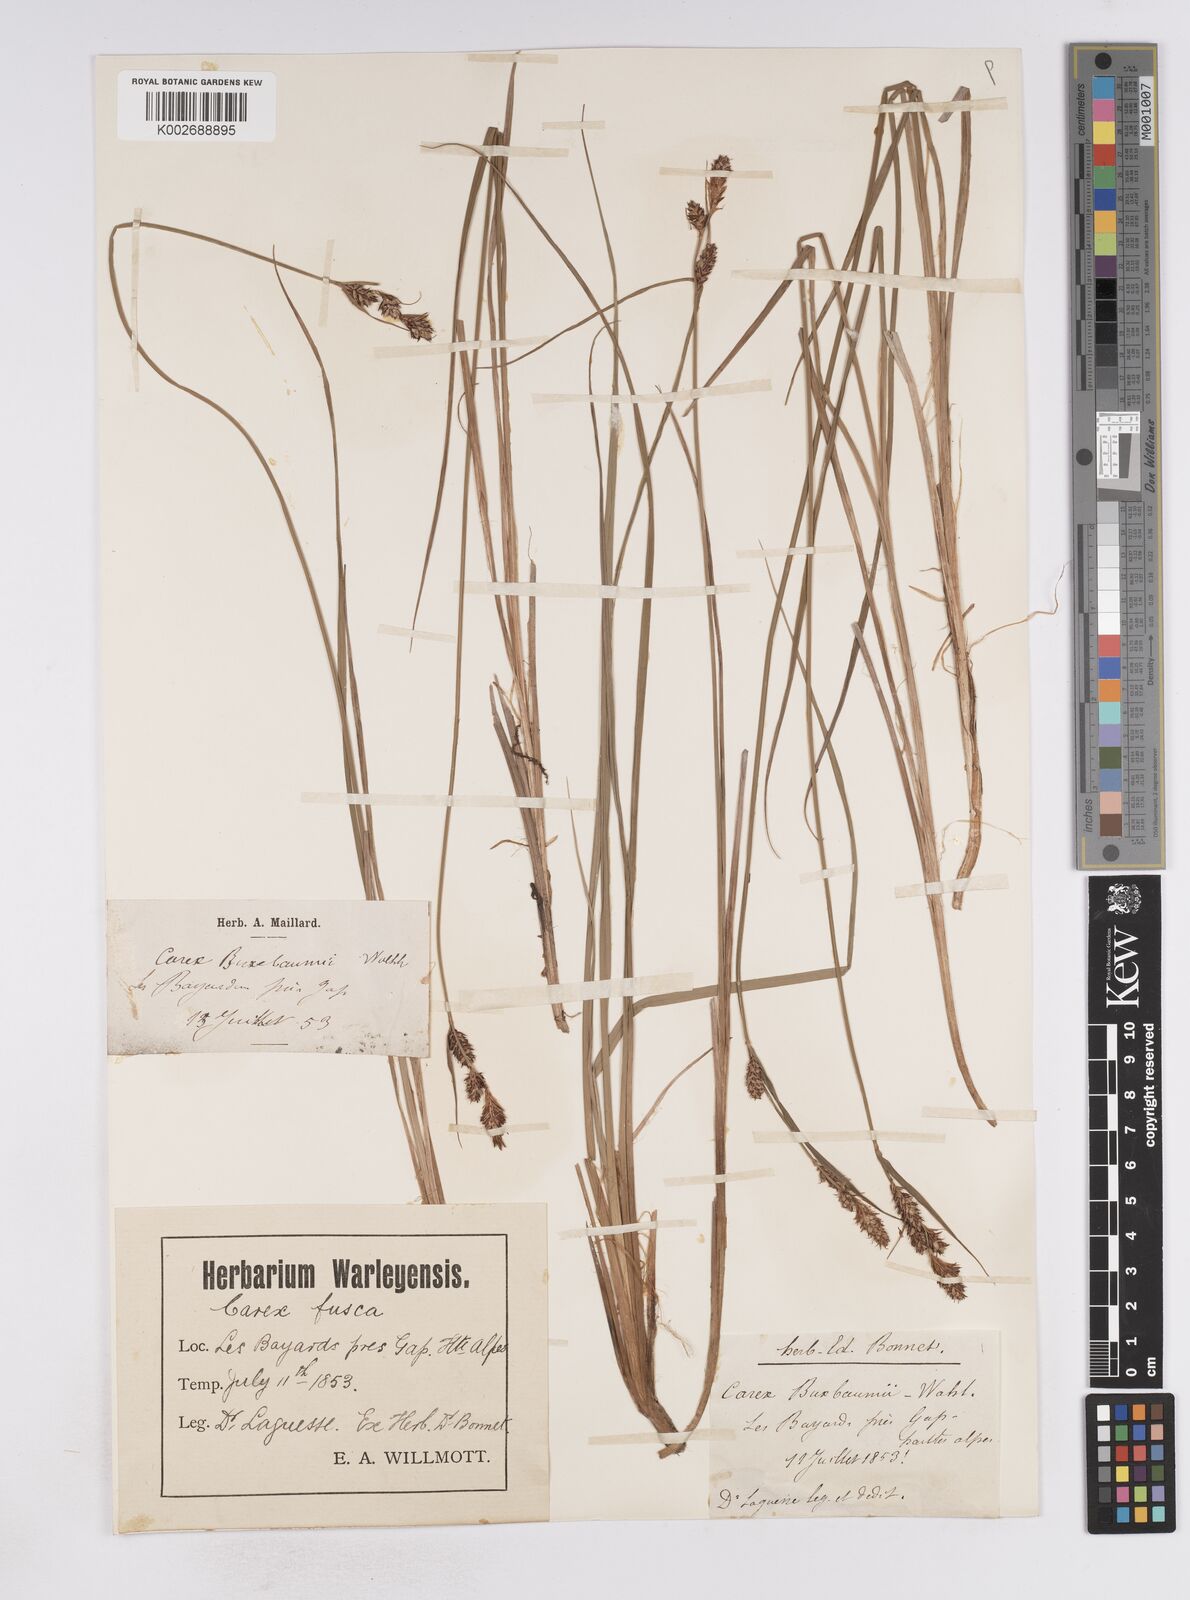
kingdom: Plantae
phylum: Tracheophyta
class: Liliopsida
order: Poales
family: Cyperaceae
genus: Carex
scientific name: Carex buxbaumii
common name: Club sedge
